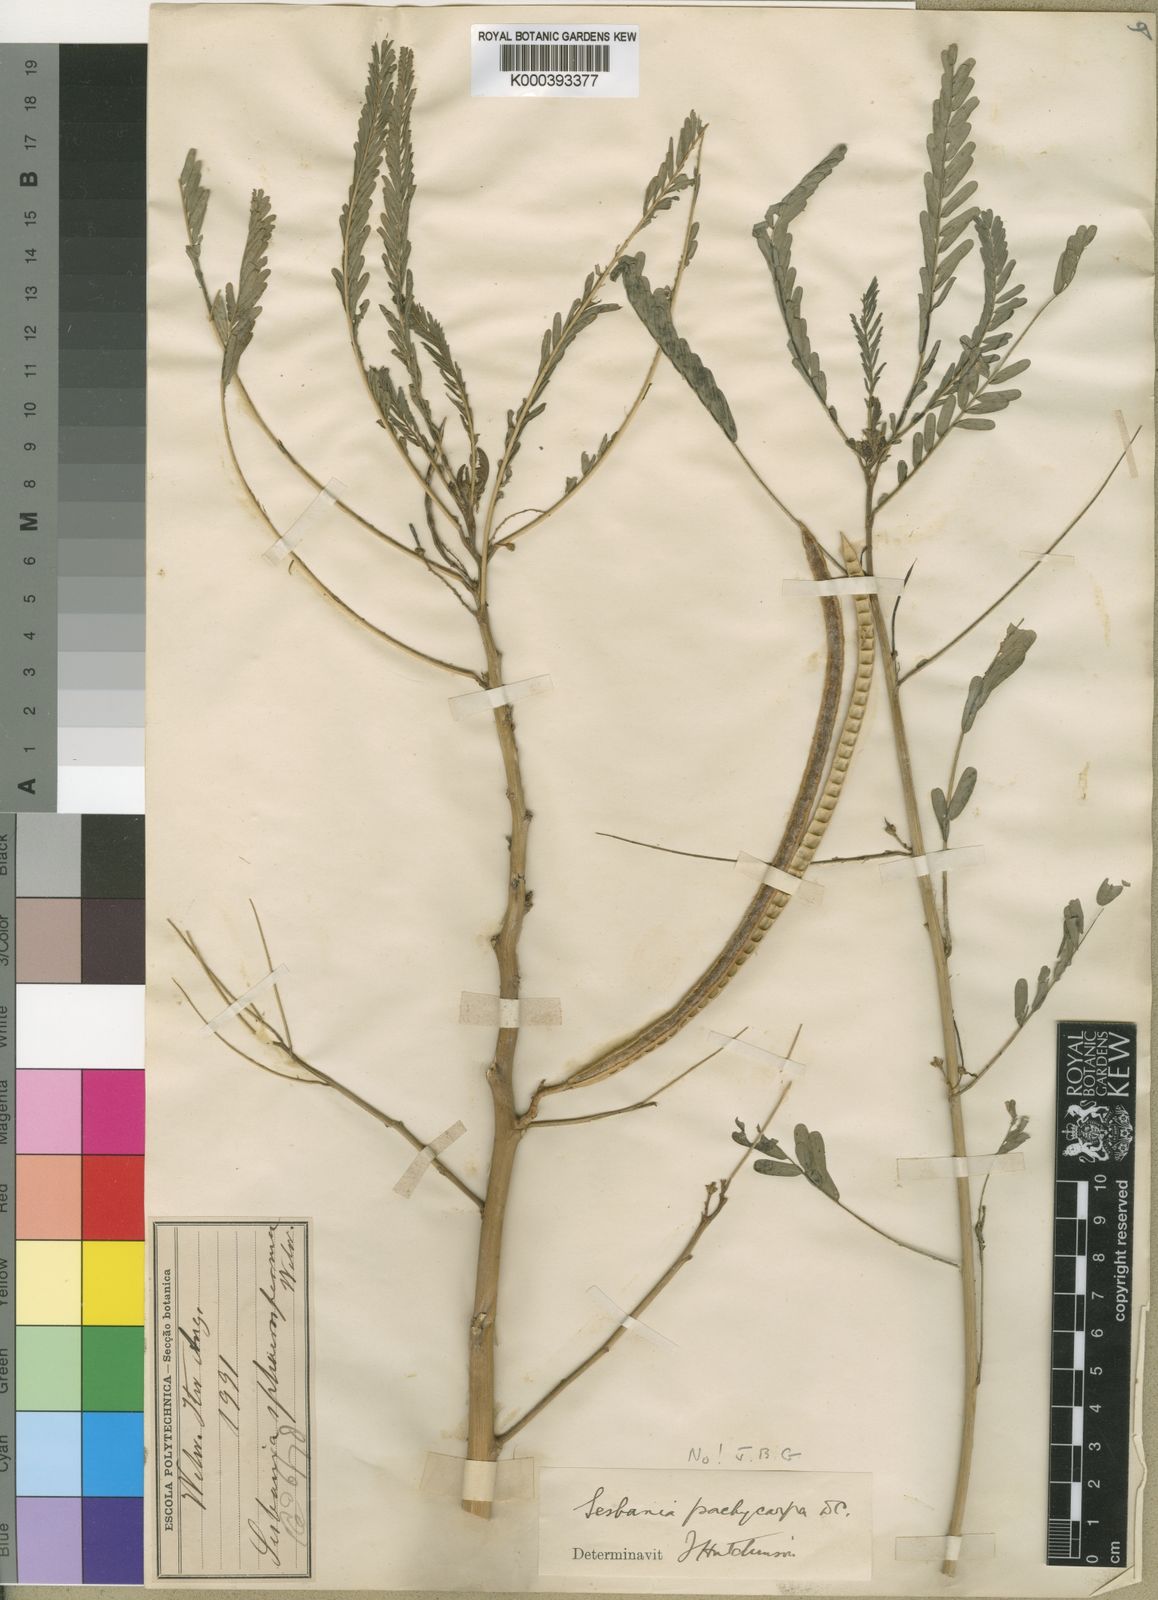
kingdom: Plantae
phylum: Tracheophyta
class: Magnoliopsida
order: Fabales
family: Fabaceae
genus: Sesbania
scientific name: Sesbania
